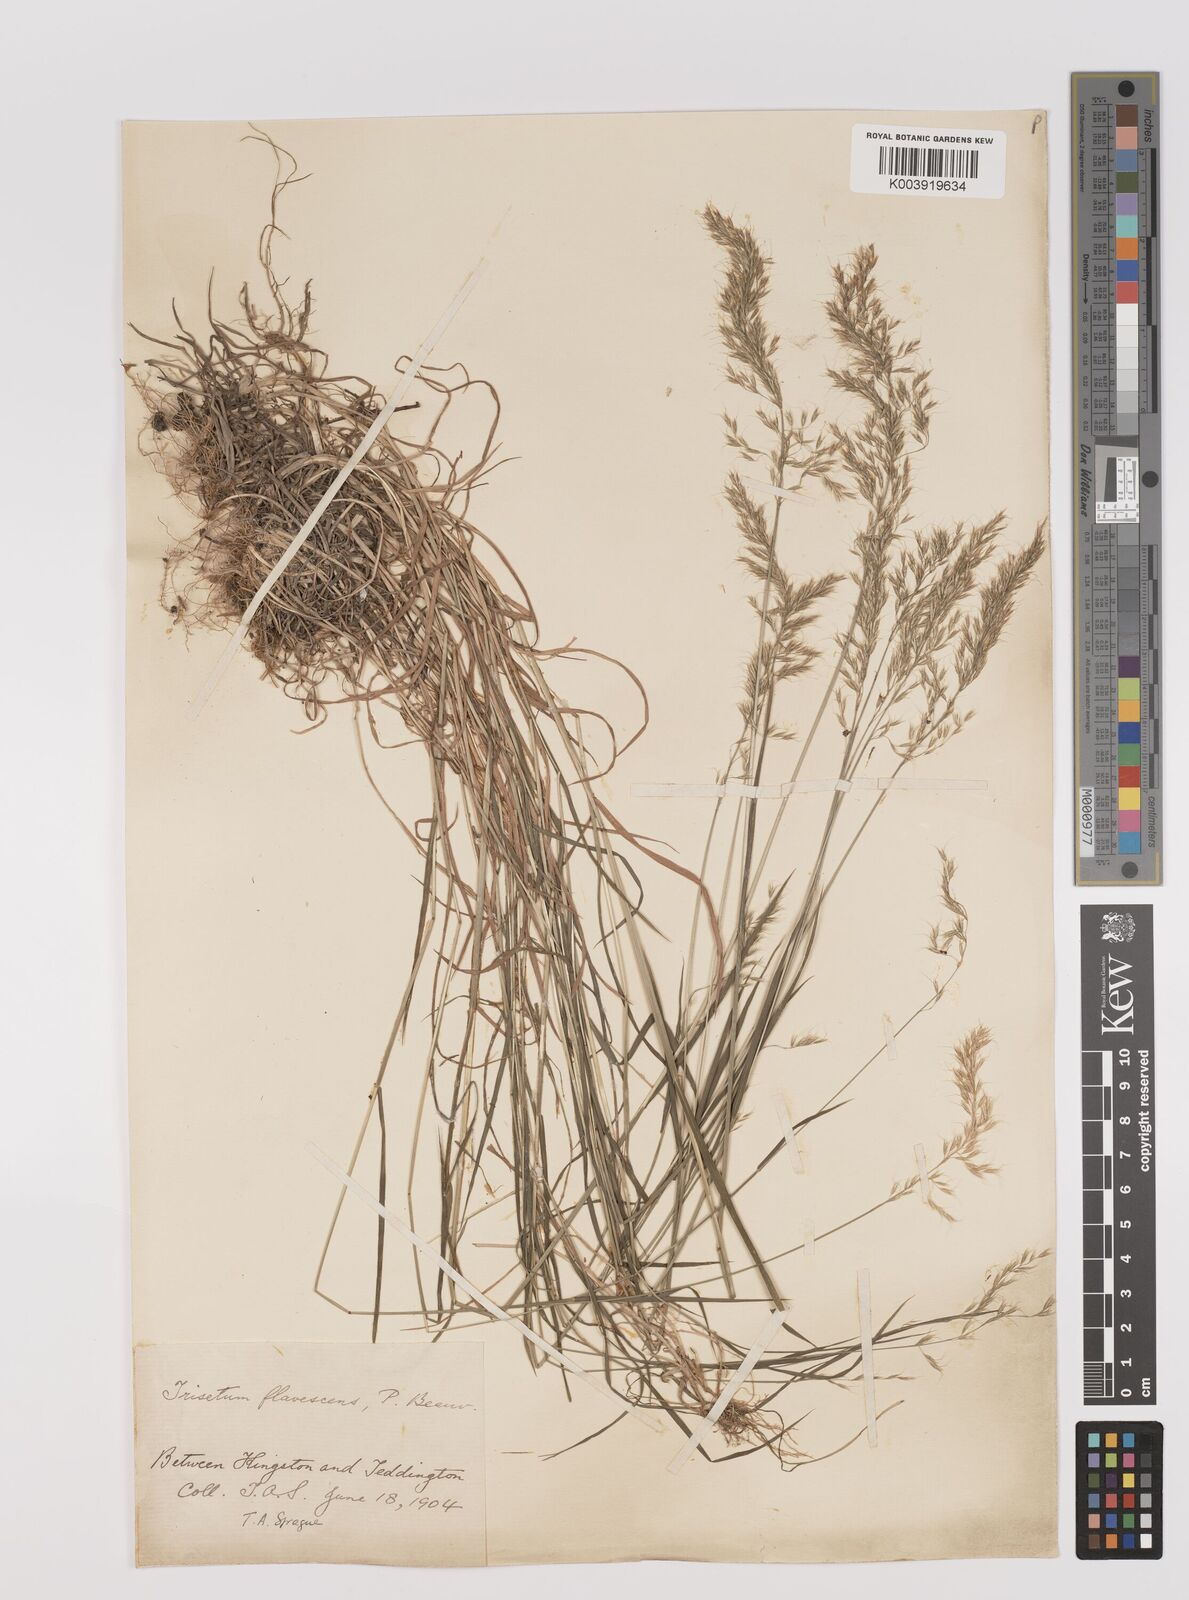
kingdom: Plantae
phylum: Tracheophyta
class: Liliopsida
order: Poales
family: Poaceae
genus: Trisetum
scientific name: Trisetum flavescens
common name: Yellow oat-grass
